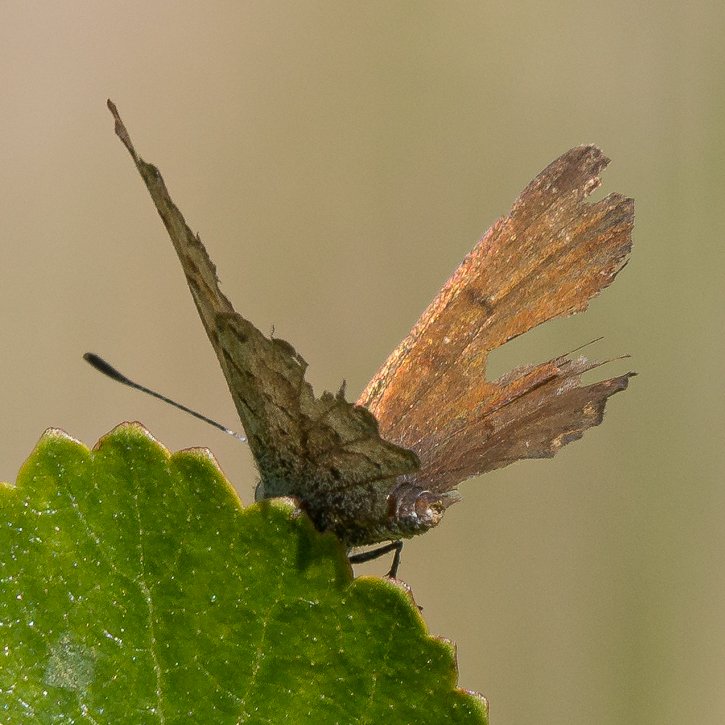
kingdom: Animalia
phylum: Arthropoda
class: Insecta
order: Lepidoptera
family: Lycaenidae
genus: Lycaena
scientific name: Lycaena mariposa
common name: Mariposa Copper
